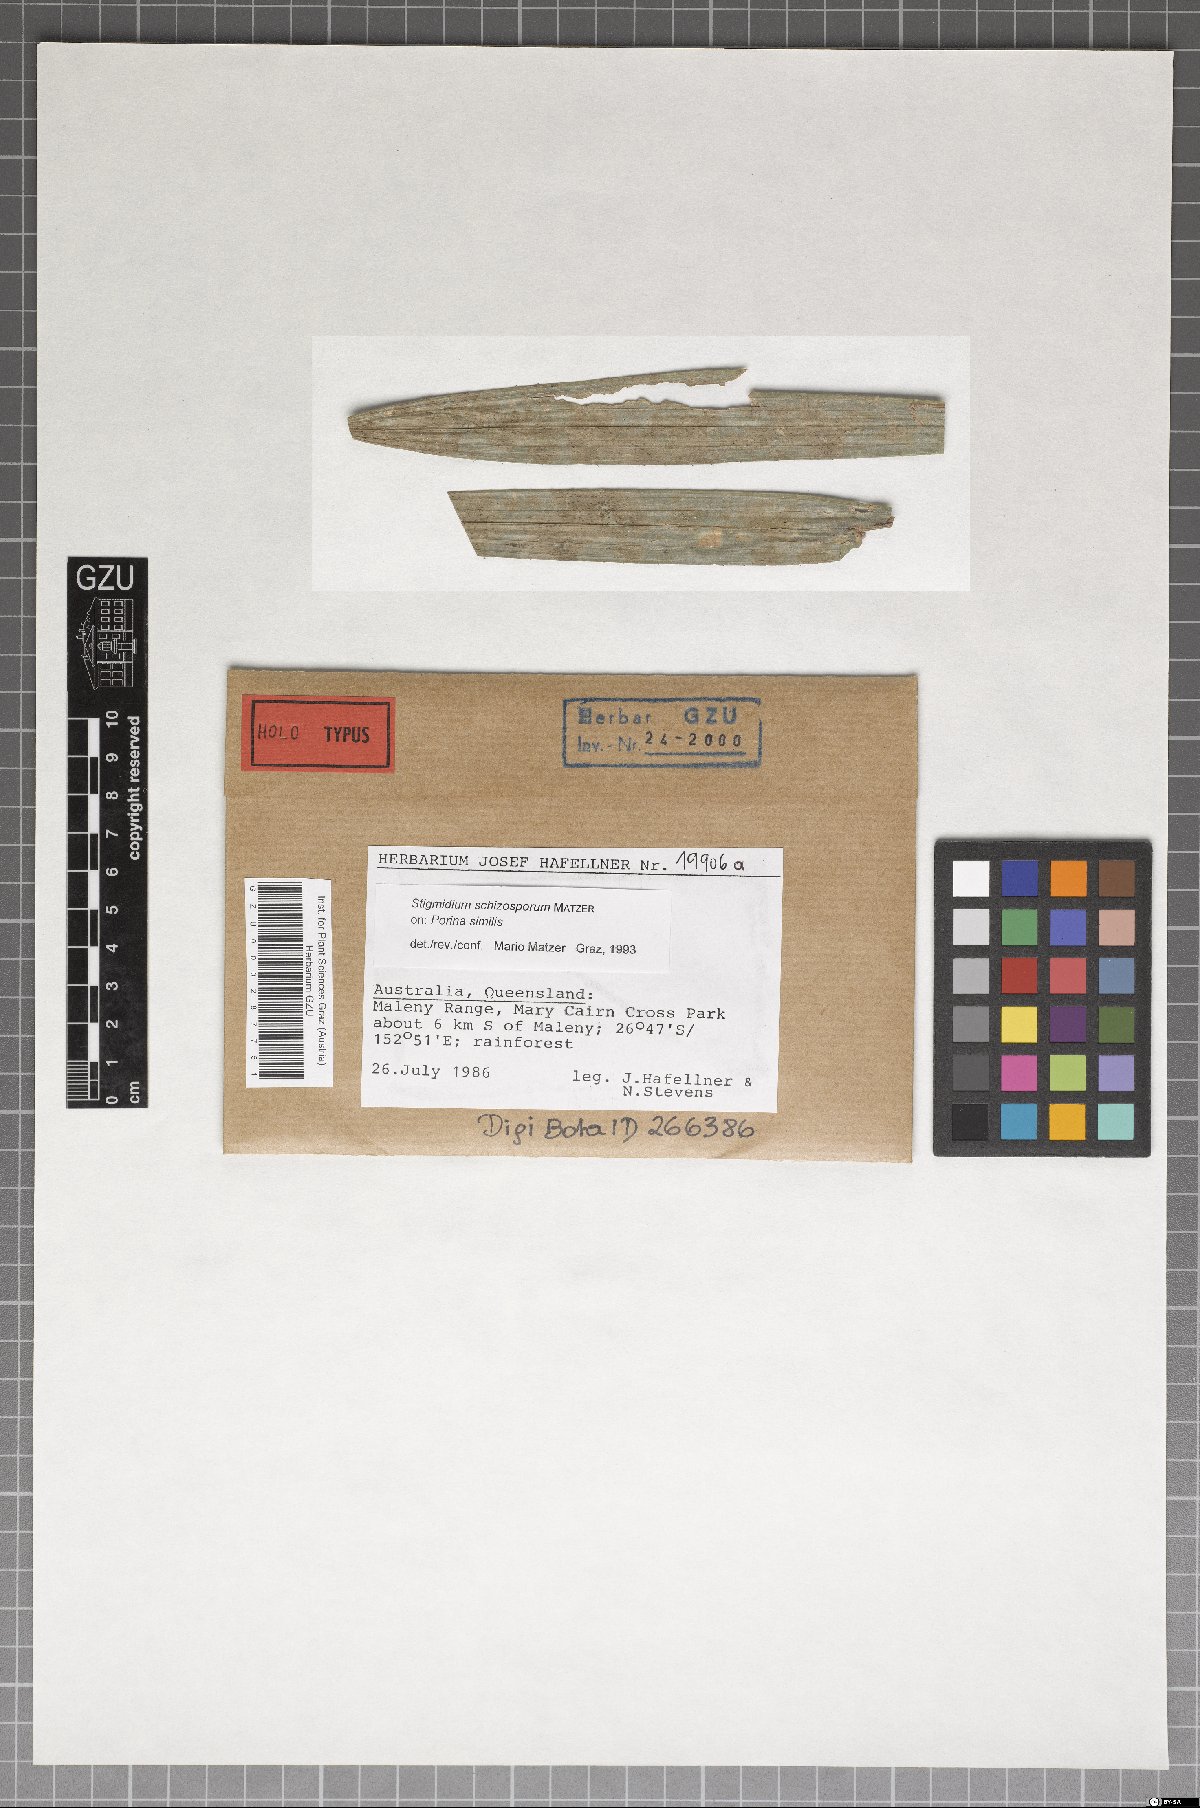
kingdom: Fungi
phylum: Ascomycota
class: Dothideomycetes
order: Mycosphaerellales
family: Mycosphaerellaceae
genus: Stigmidium
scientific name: Stigmidium schizosporum
